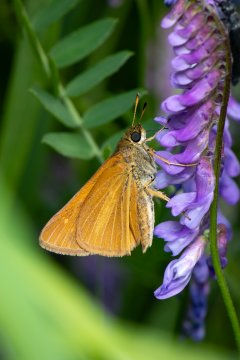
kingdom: Animalia
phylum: Arthropoda
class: Insecta
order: Lepidoptera
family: Hesperiidae
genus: Euphyes
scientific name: Euphyes dion
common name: Dion Skipper
